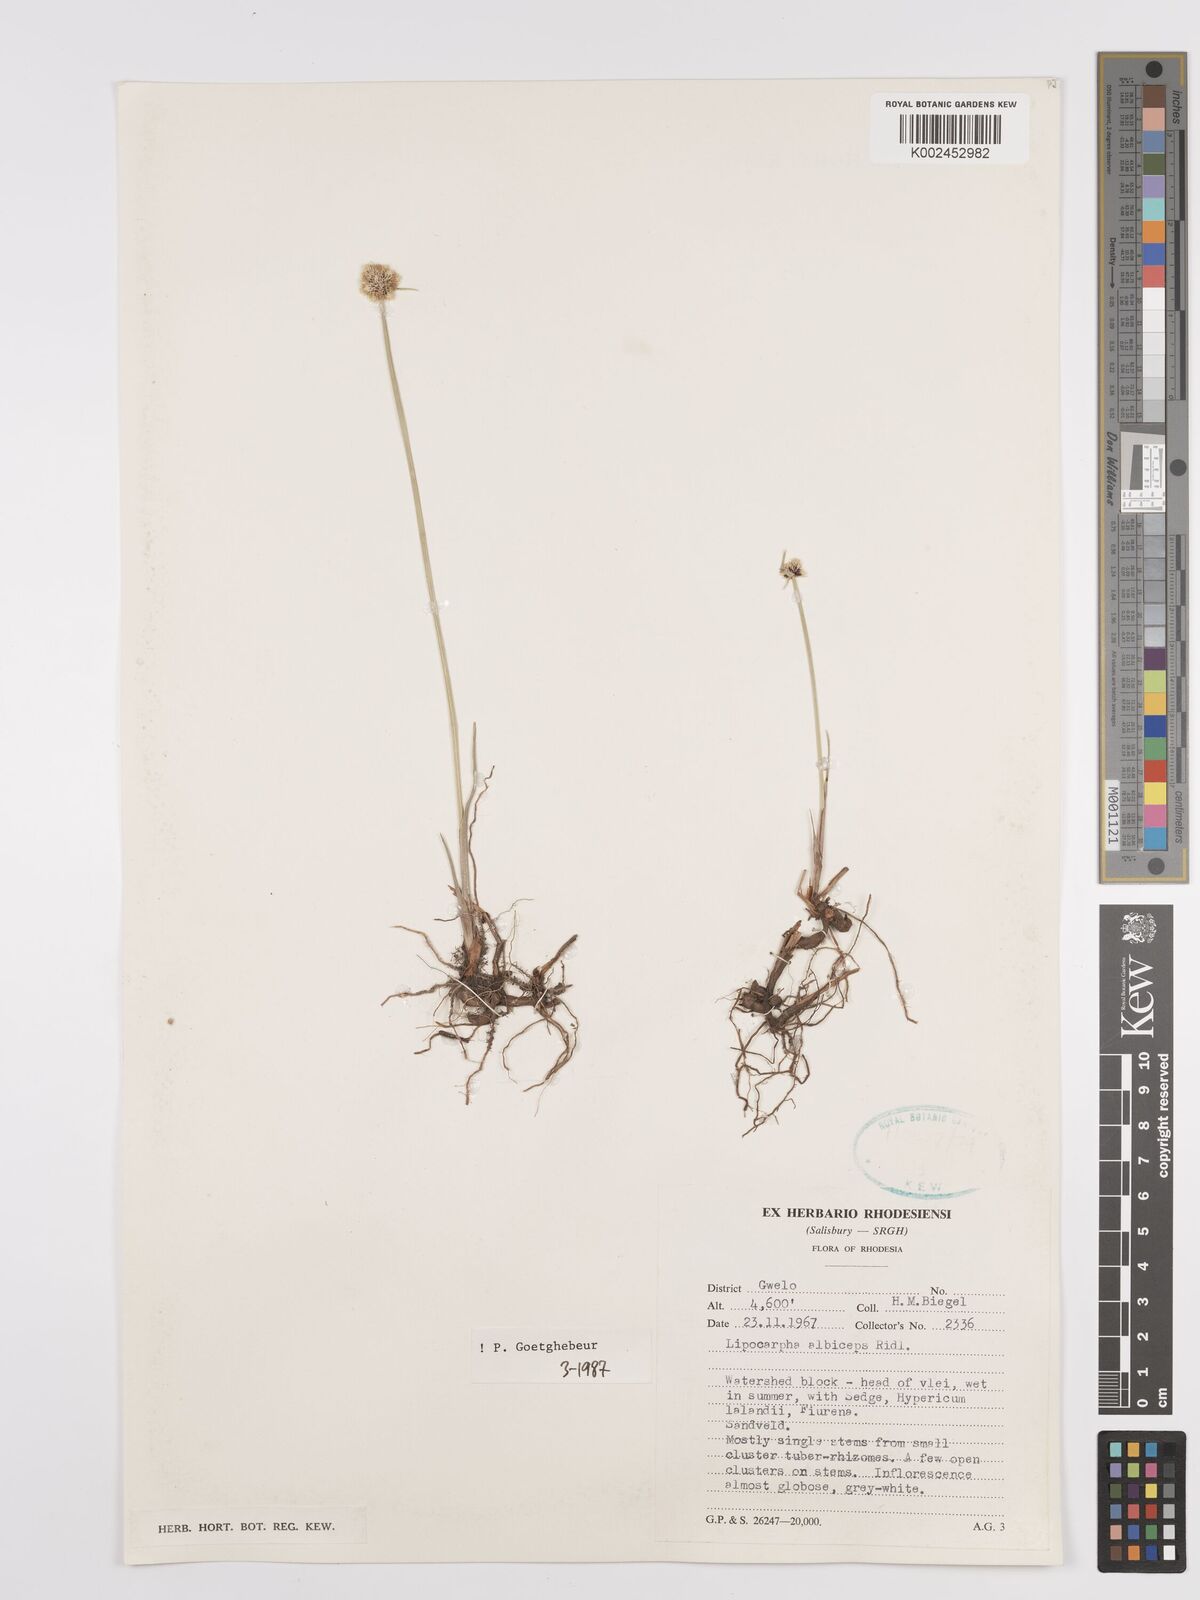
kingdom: Plantae
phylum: Tracheophyta
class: Liliopsida
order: Poales
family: Cyperaceae
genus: Cyperus
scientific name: Cyperus albiceps
